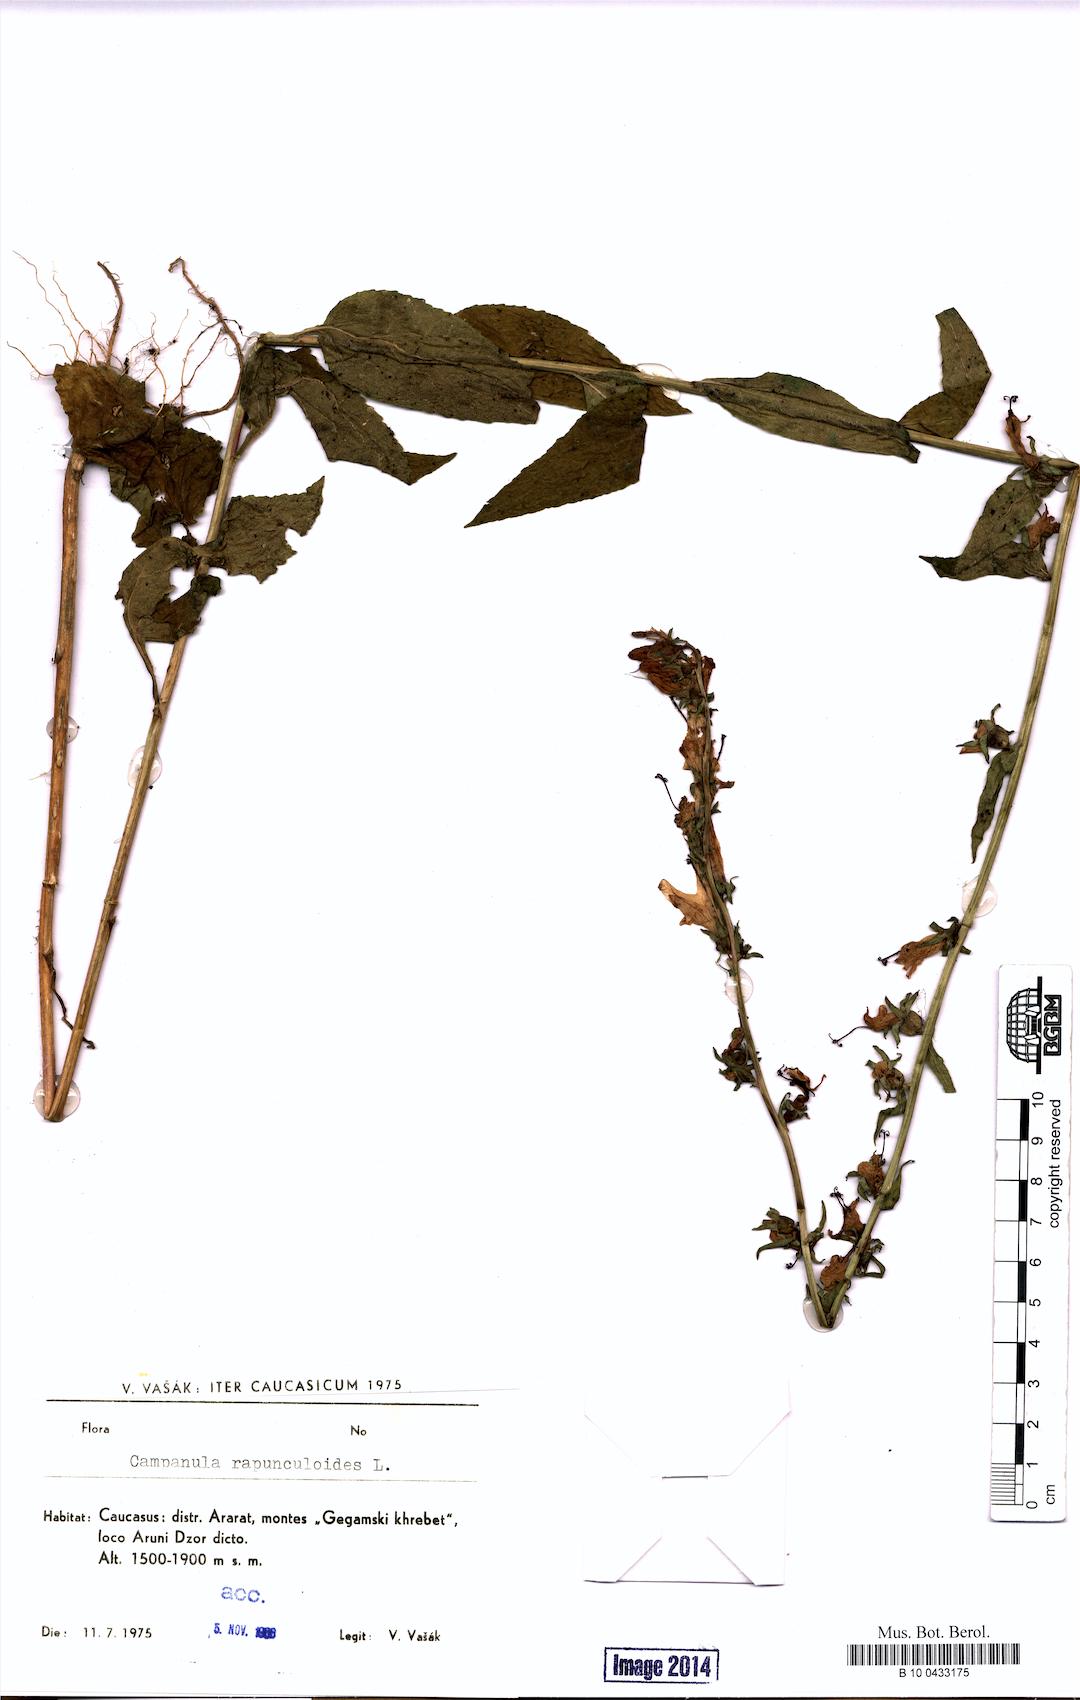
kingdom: Plantae
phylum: Tracheophyta
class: Magnoliopsida
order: Asterales
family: Campanulaceae
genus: Campanula
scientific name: Campanula rapunculoides
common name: Creeping bellflower
